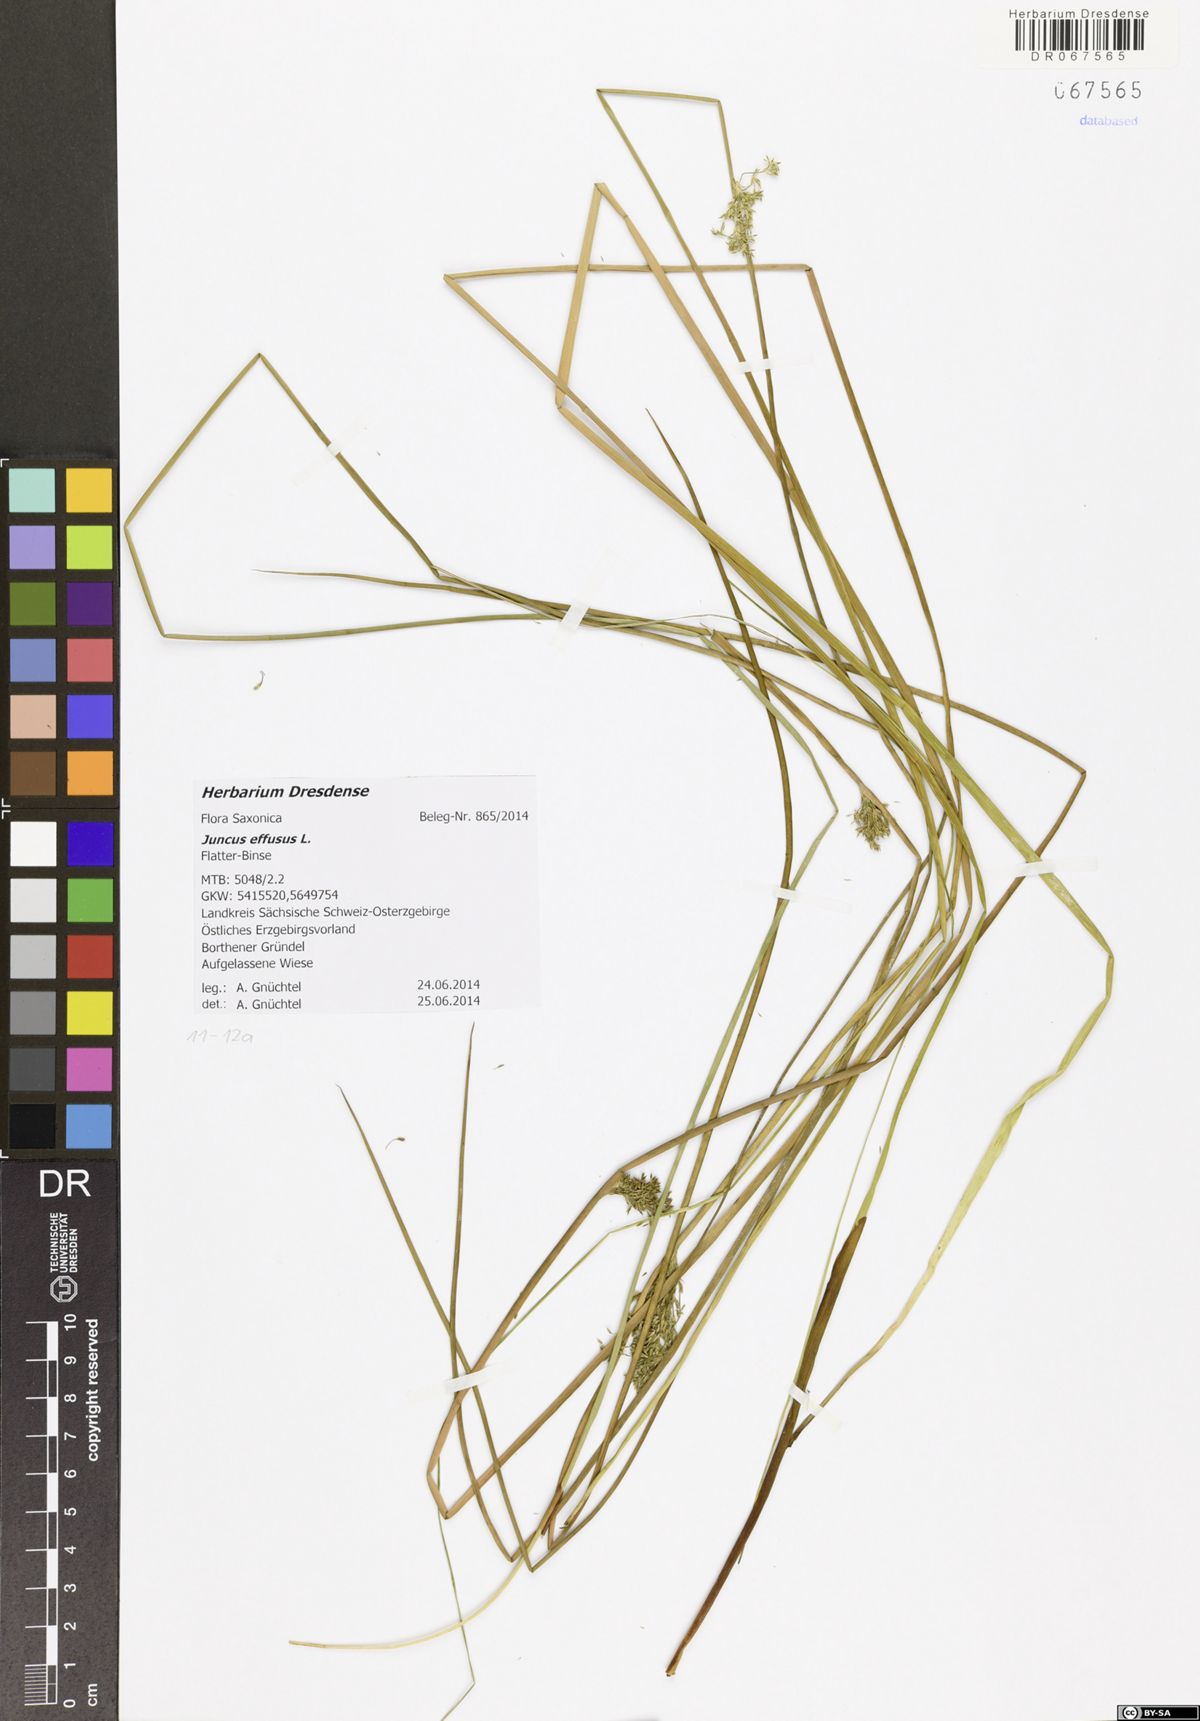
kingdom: Plantae
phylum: Tracheophyta
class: Liliopsida
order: Poales
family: Juncaceae
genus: Juncus
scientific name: Juncus effusus
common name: Soft rush
